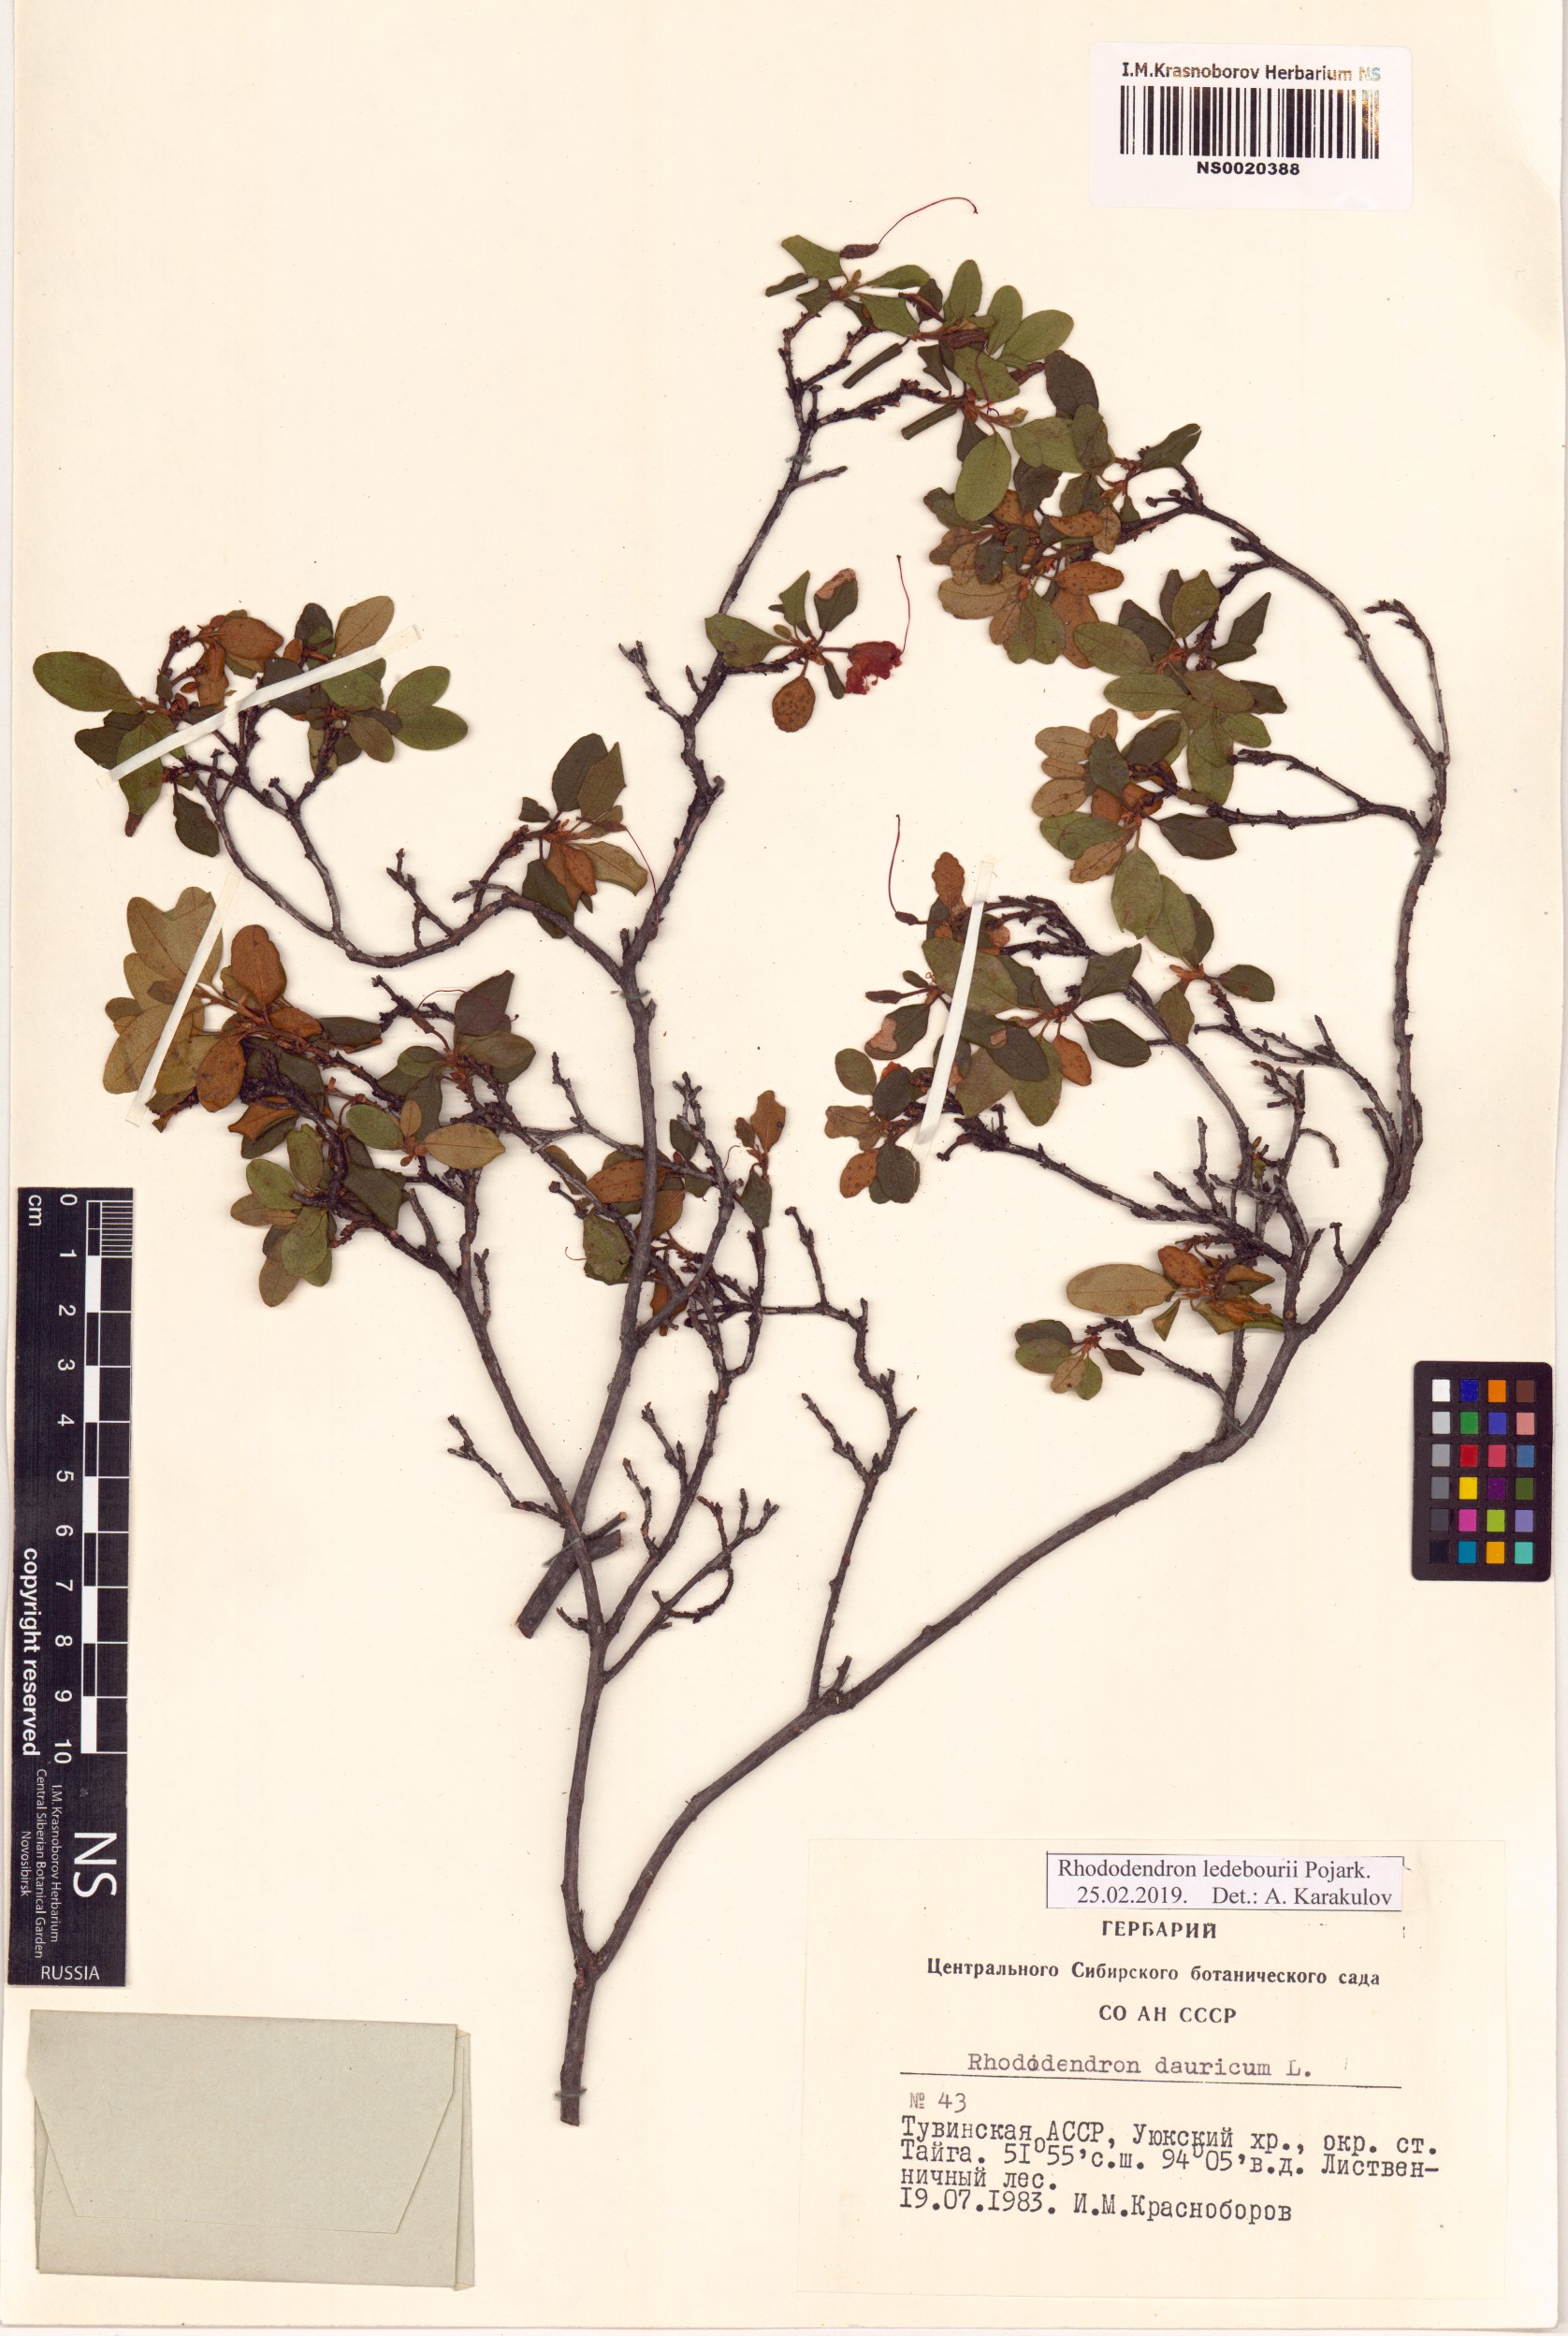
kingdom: Plantae
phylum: Tracheophyta
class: Magnoliopsida
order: Ericales
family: Ericaceae
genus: Rhododendron
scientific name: Rhododendron dauricum
